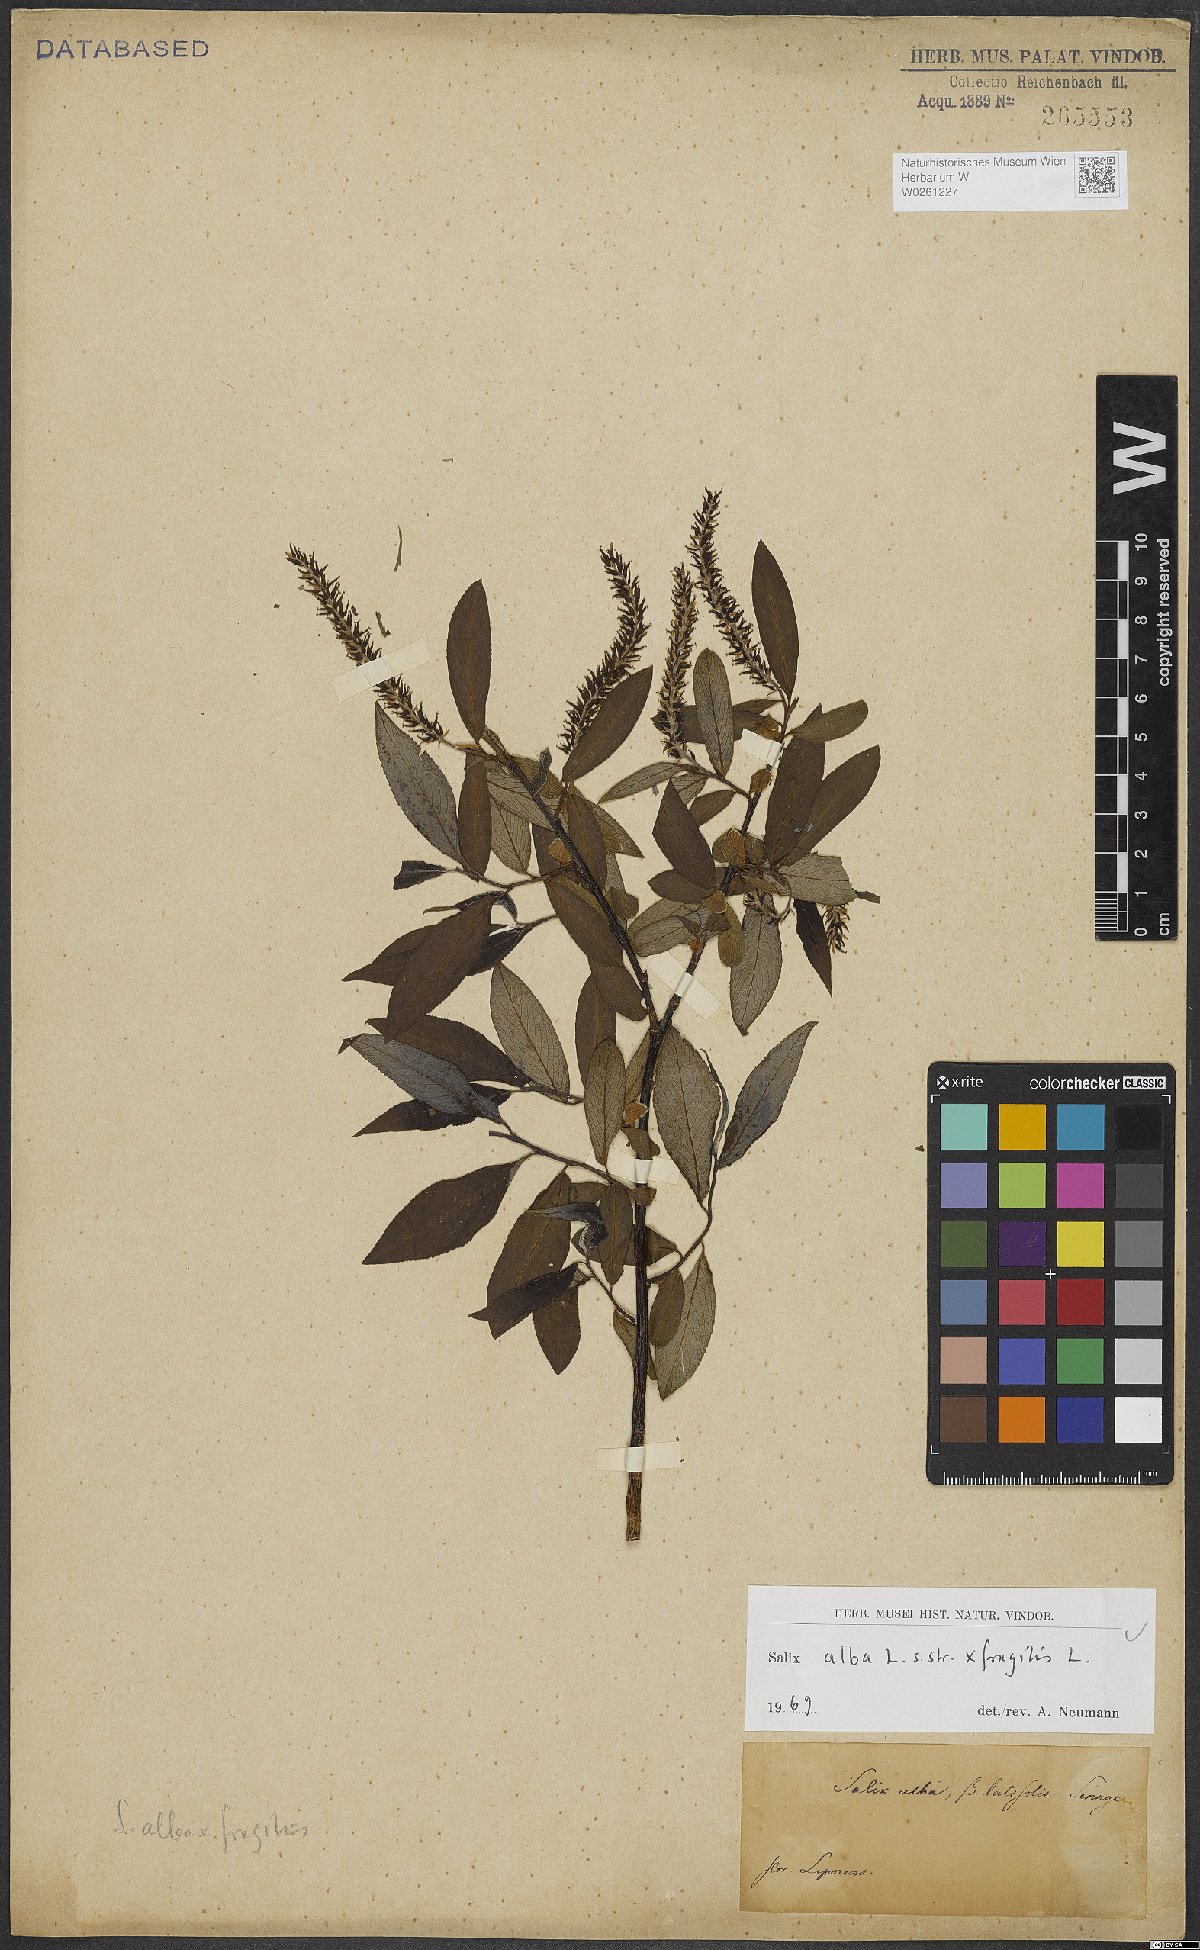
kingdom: Plantae
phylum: Tracheophyta
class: Magnoliopsida
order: Malpighiales
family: Salicaceae
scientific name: Salicaceae
